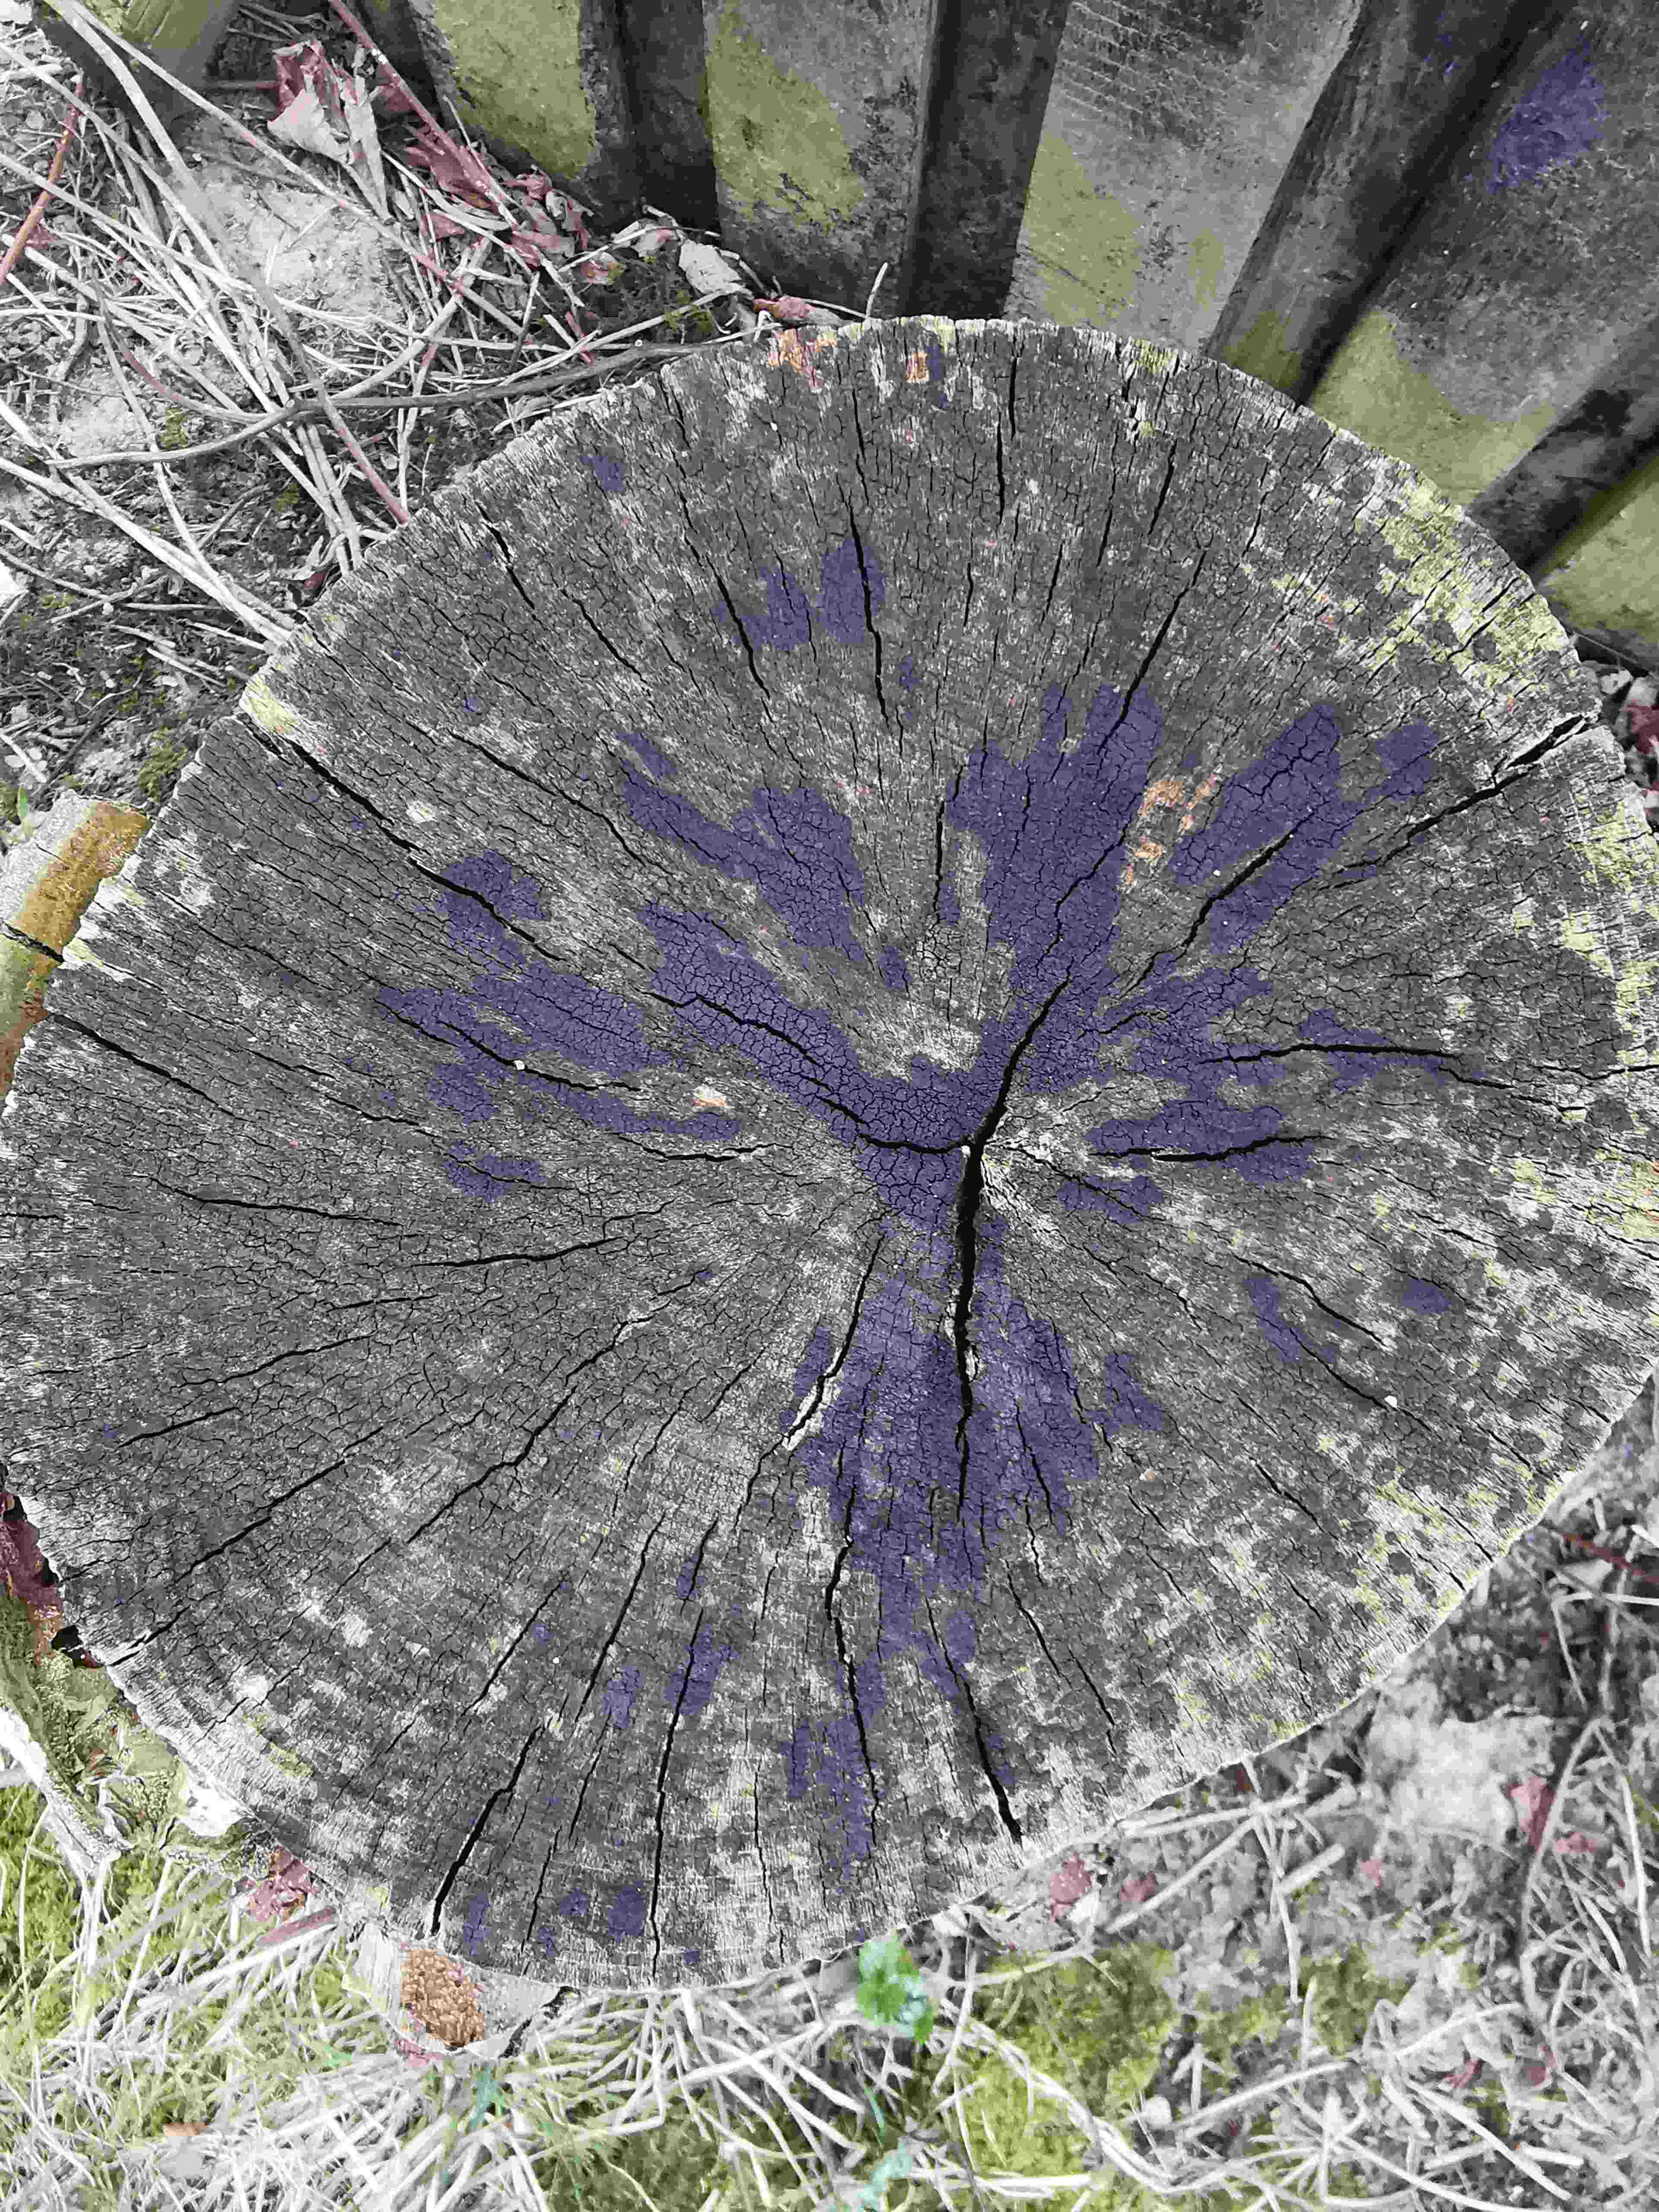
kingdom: Fungi
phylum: Ascomycota
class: Leotiomycetes
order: Helotiales
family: Helotiaceae
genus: Bispora
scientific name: Bispora pallescens
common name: måtte-snitskive
